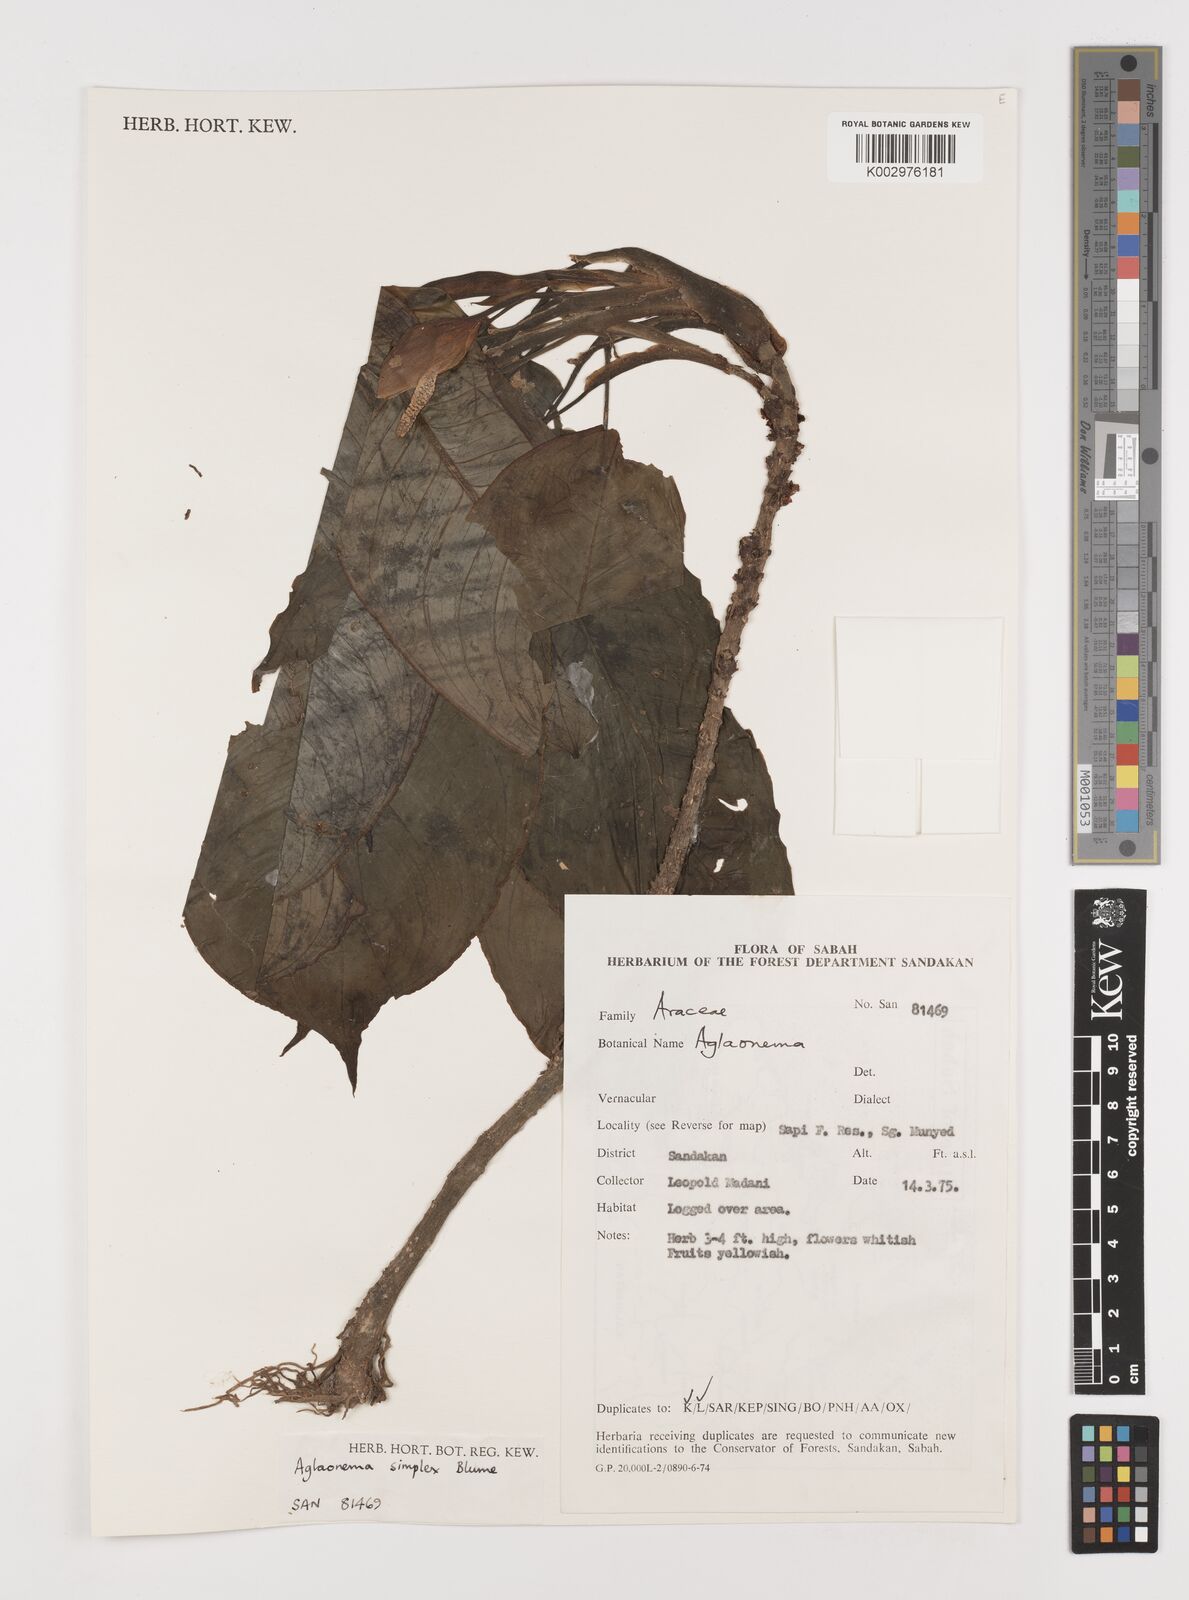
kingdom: Plantae
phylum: Tracheophyta
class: Liliopsida
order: Alismatales
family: Araceae
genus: Aglaonema
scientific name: Aglaonema simplex
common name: Malayan-sword
